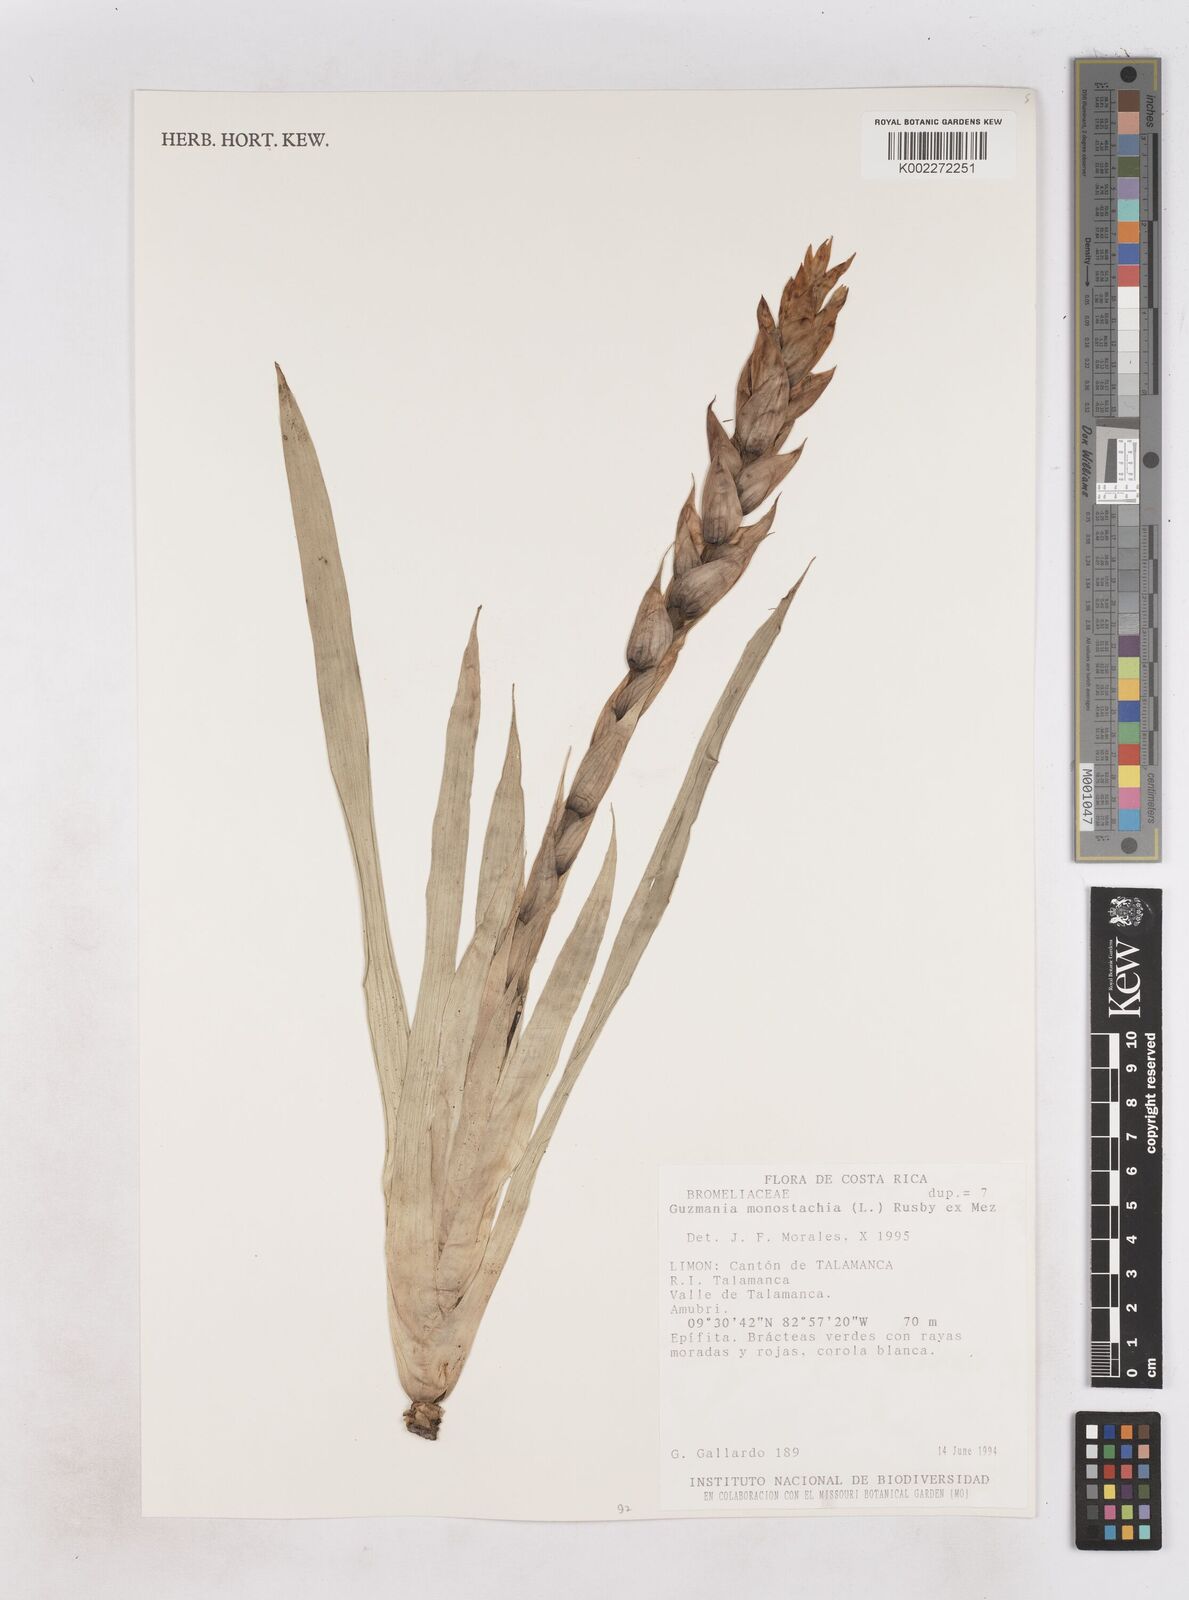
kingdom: Plantae
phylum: Tracheophyta
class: Liliopsida
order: Poales
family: Bromeliaceae
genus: Guzmania
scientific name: Guzmania monostachia
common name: West indian tufted airplant
